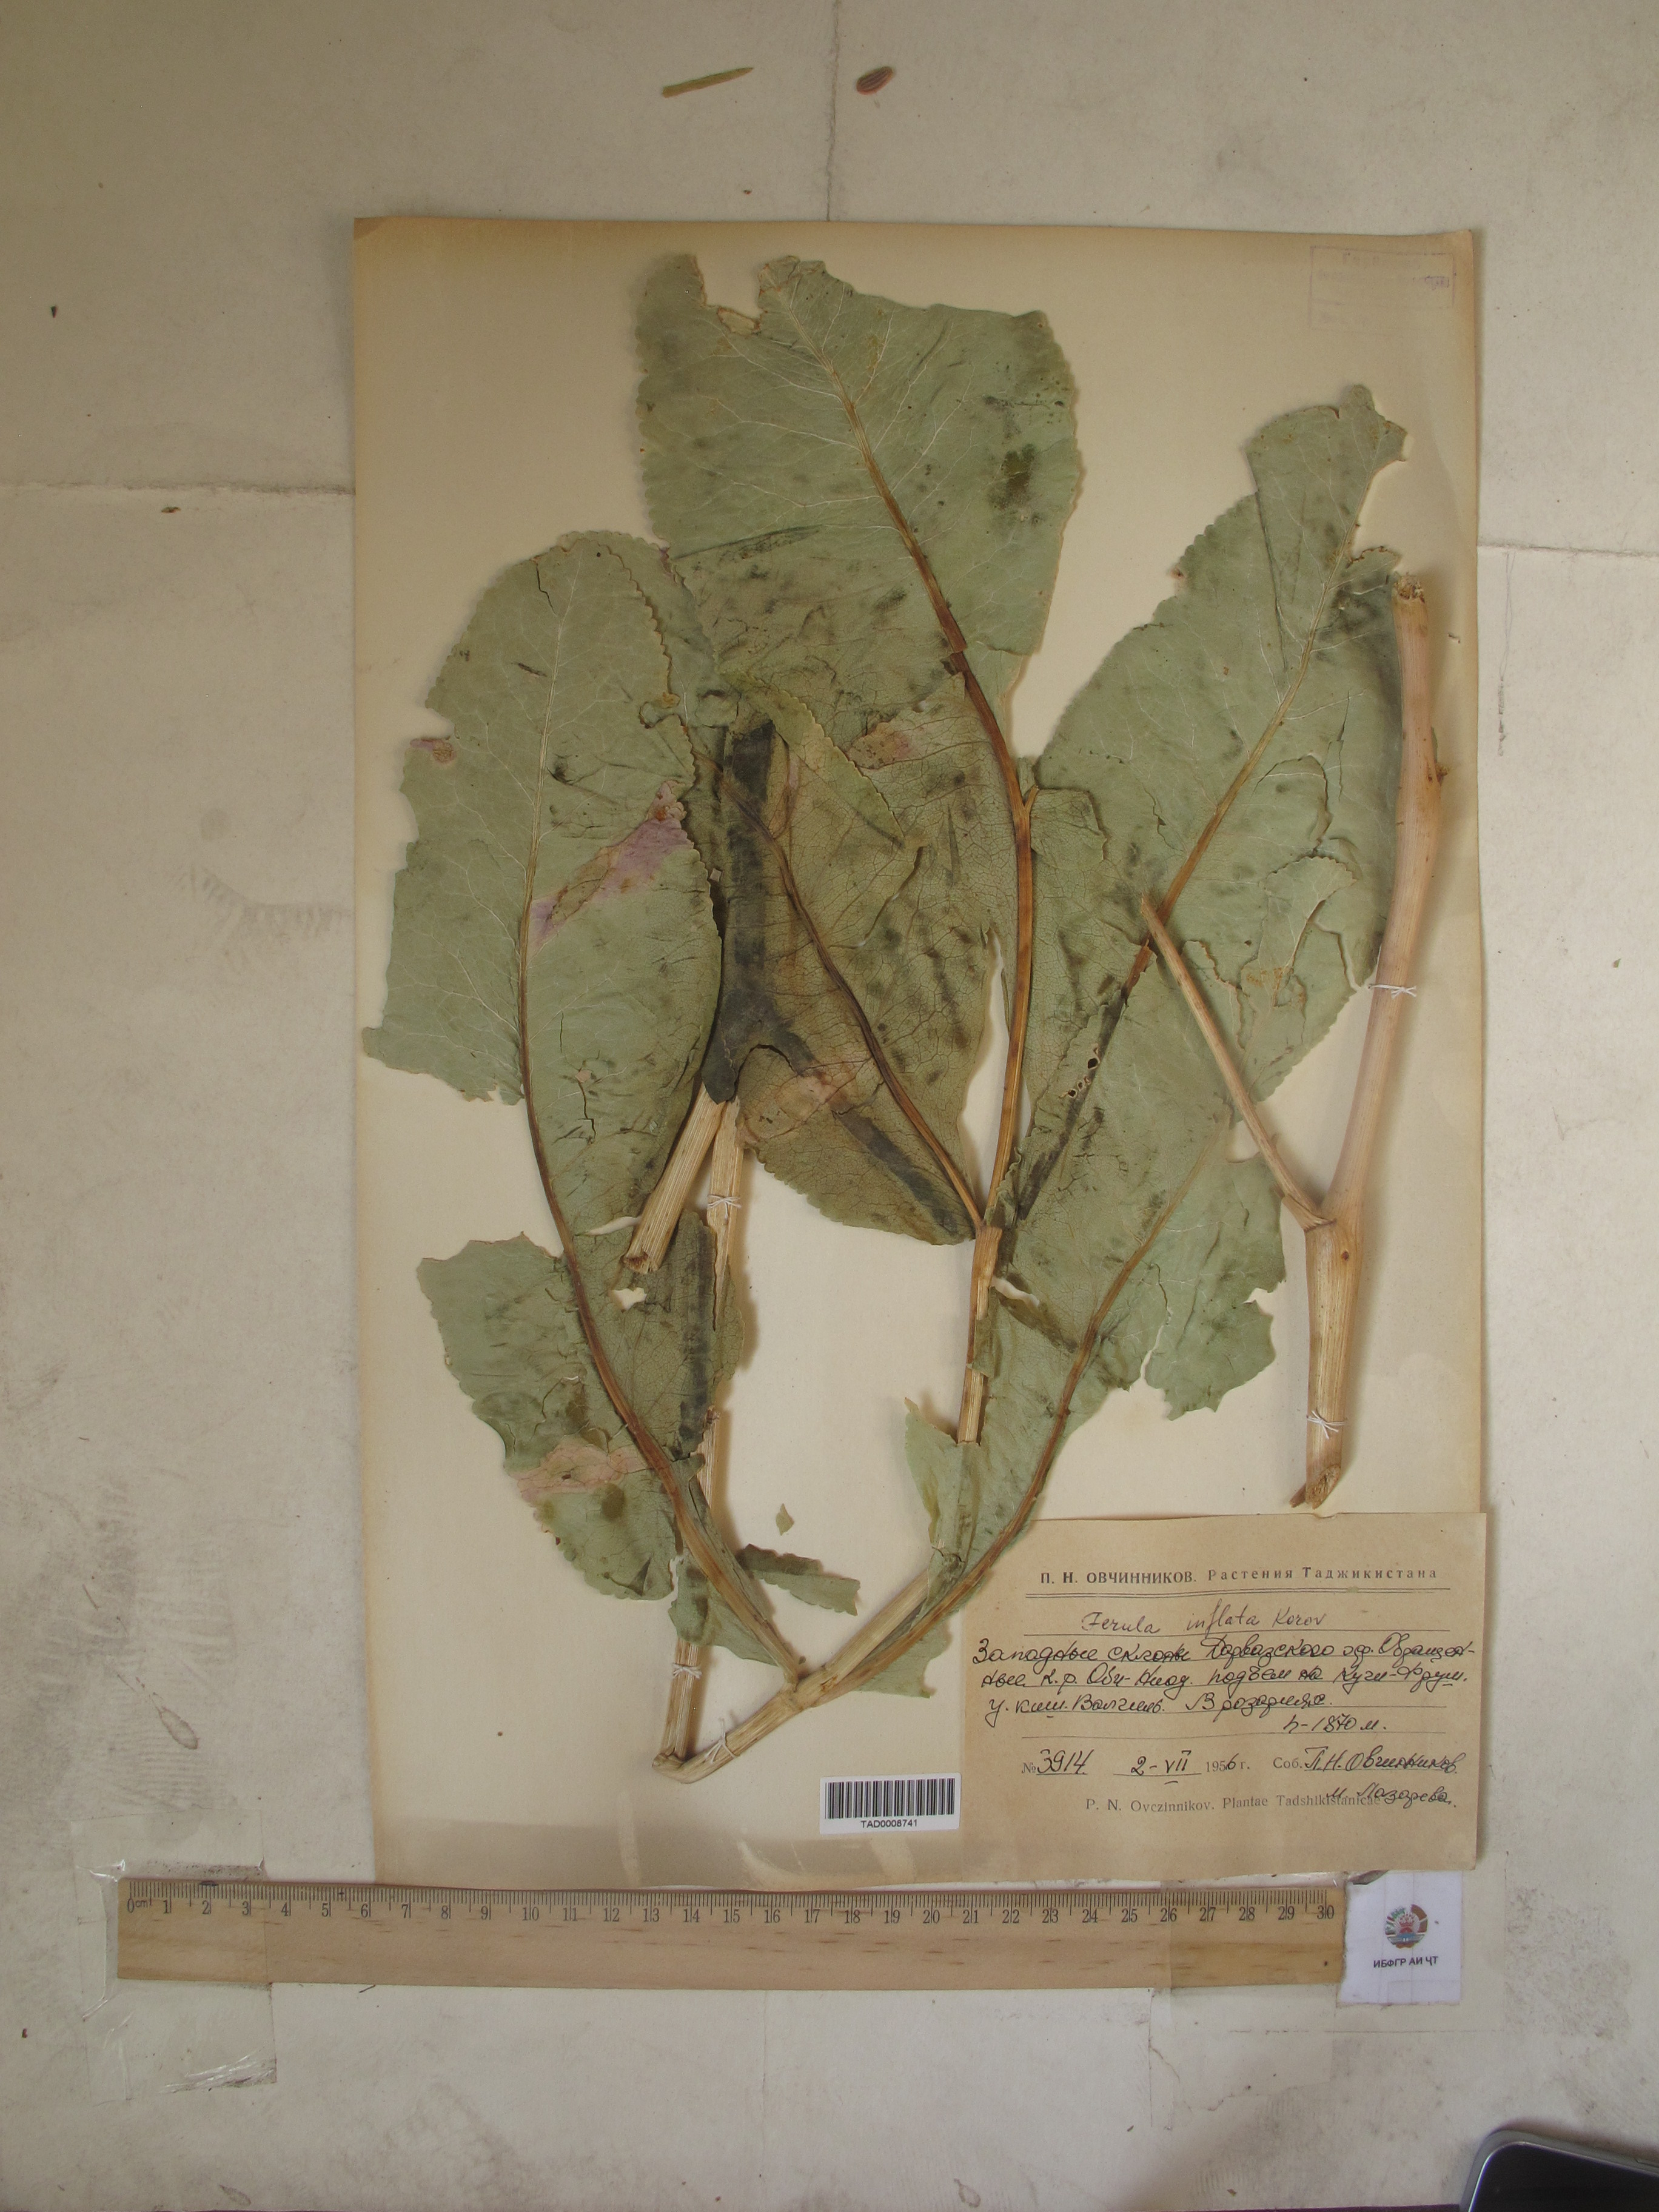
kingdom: Plantae
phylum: Tracheophyta
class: Magnoliopsida
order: Apiales
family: Apiaceae
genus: Ferula
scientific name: Ferula gigantea
